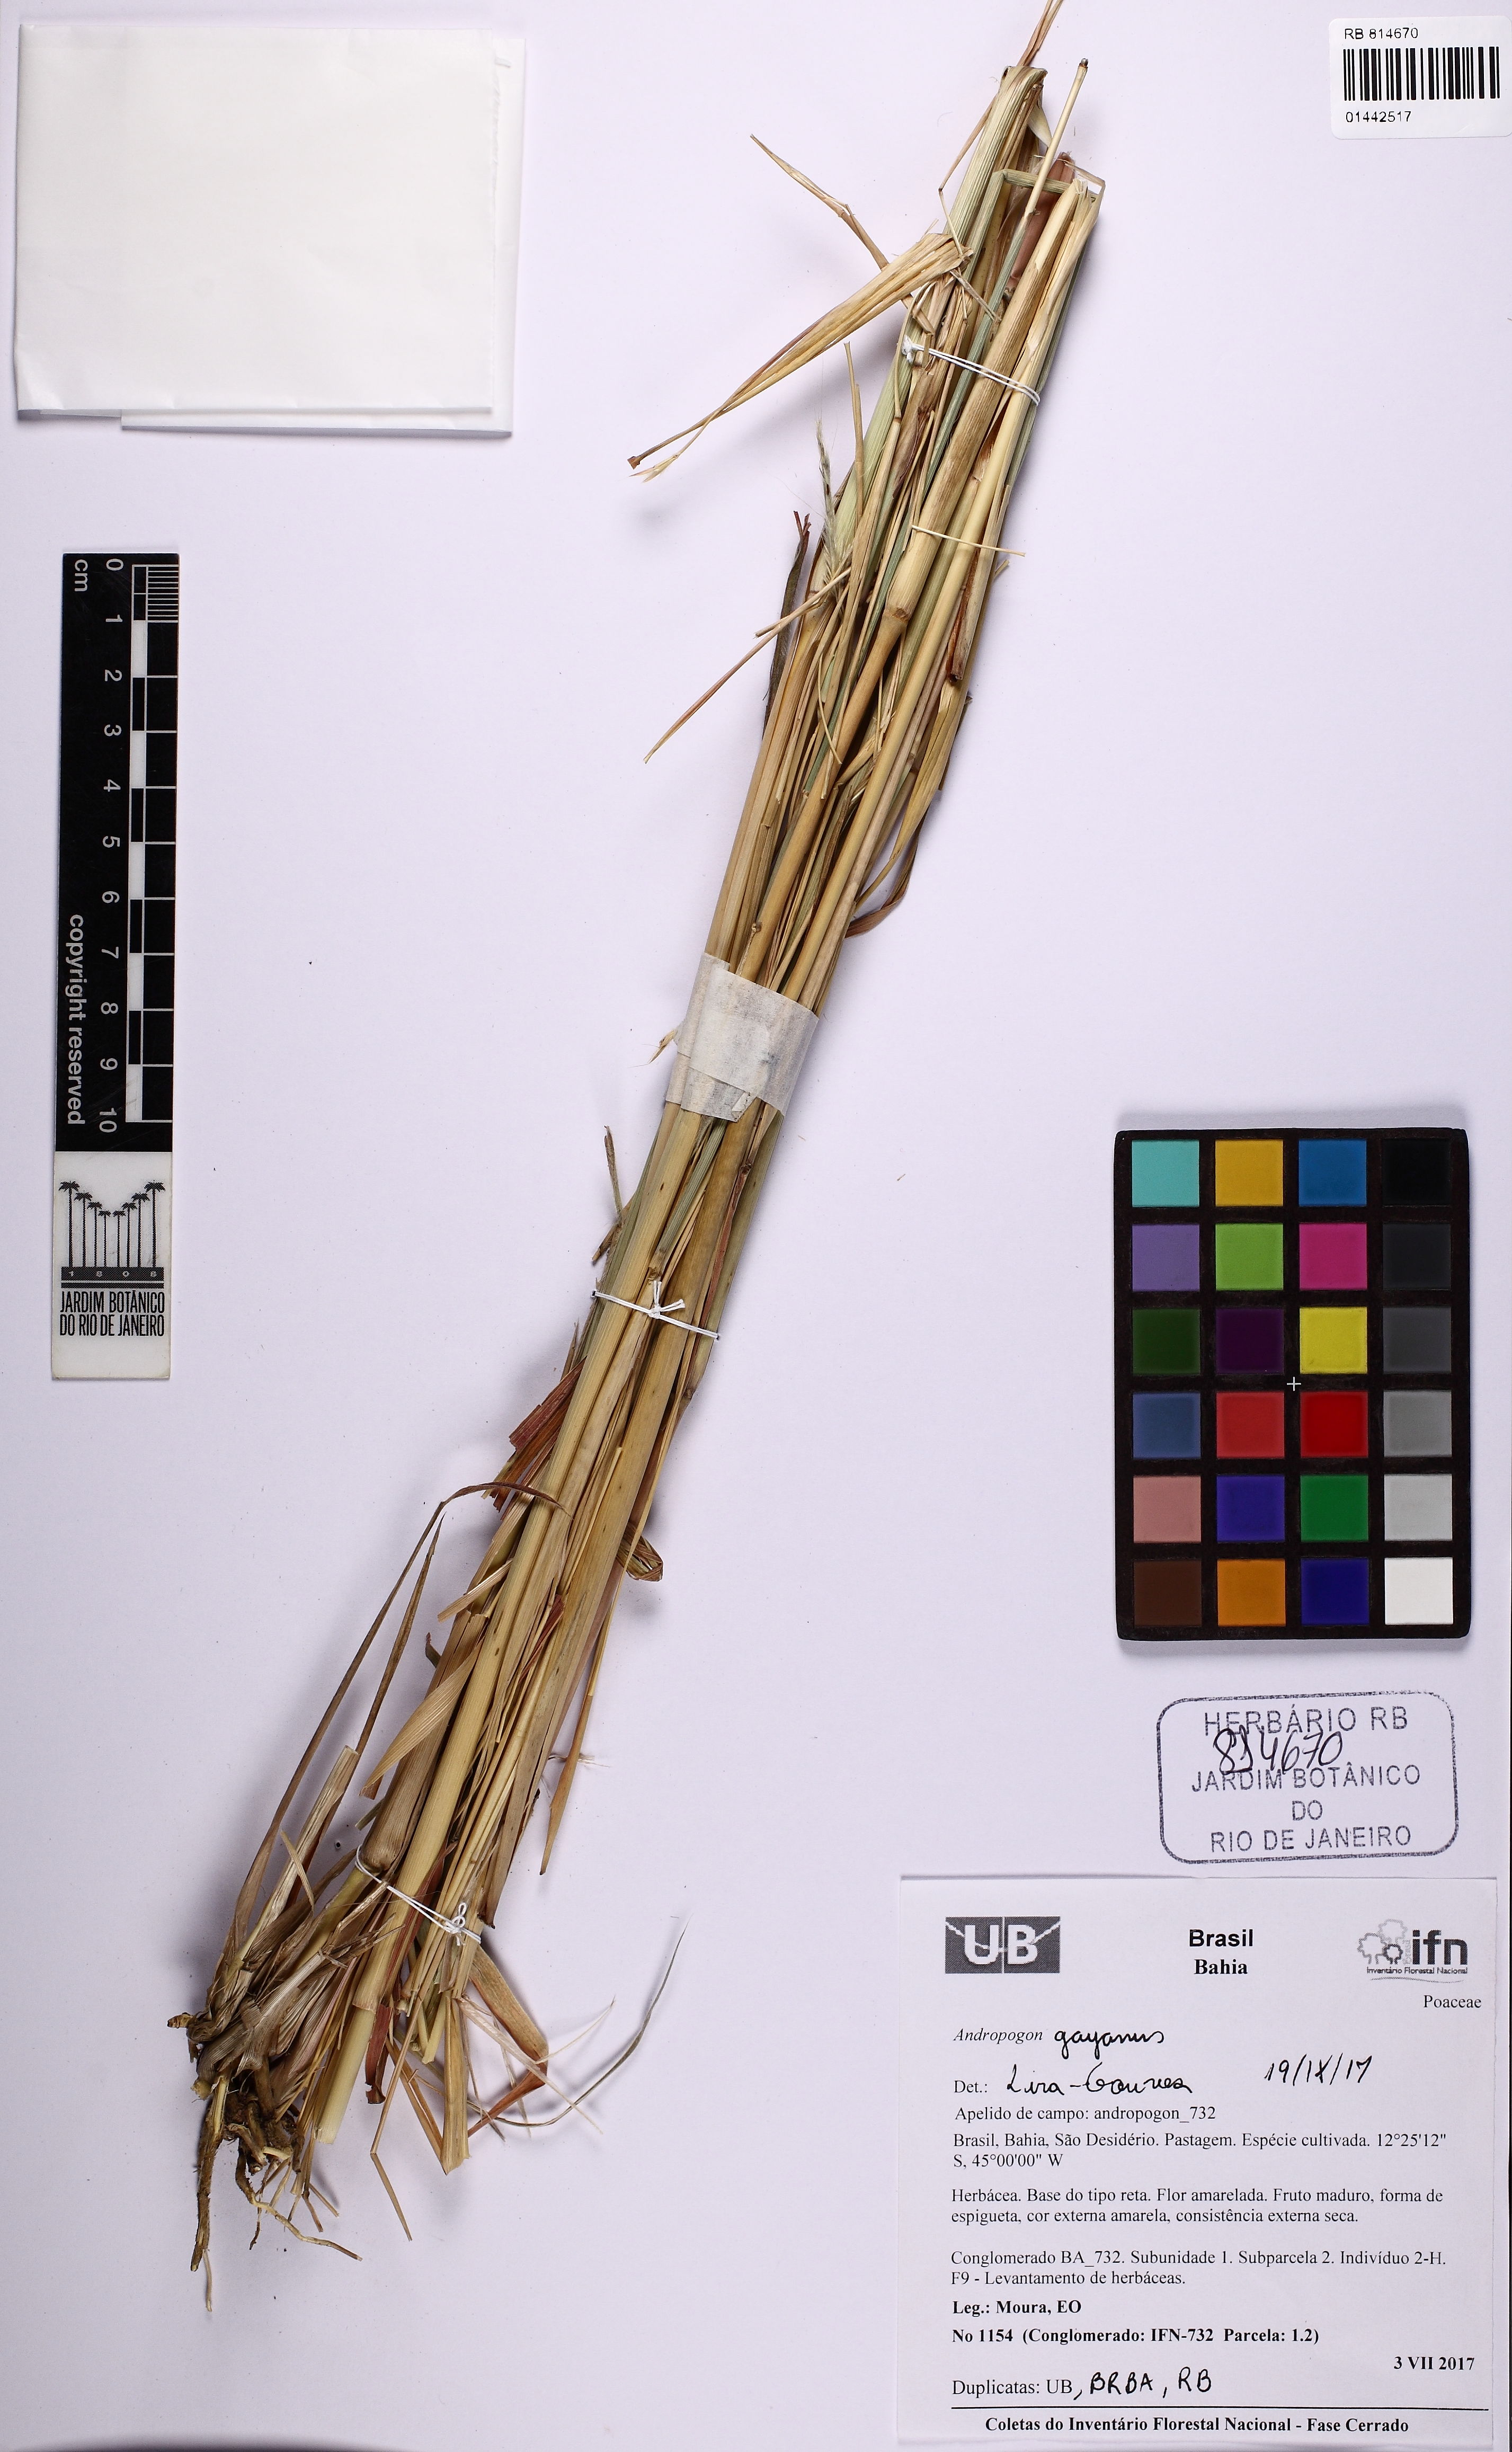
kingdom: Plantae
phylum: Tracheophyta
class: Liliopsida
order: Poales
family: Poaceae
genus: Andropogon
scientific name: Andropogon gayanus
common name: Tambuki grass
